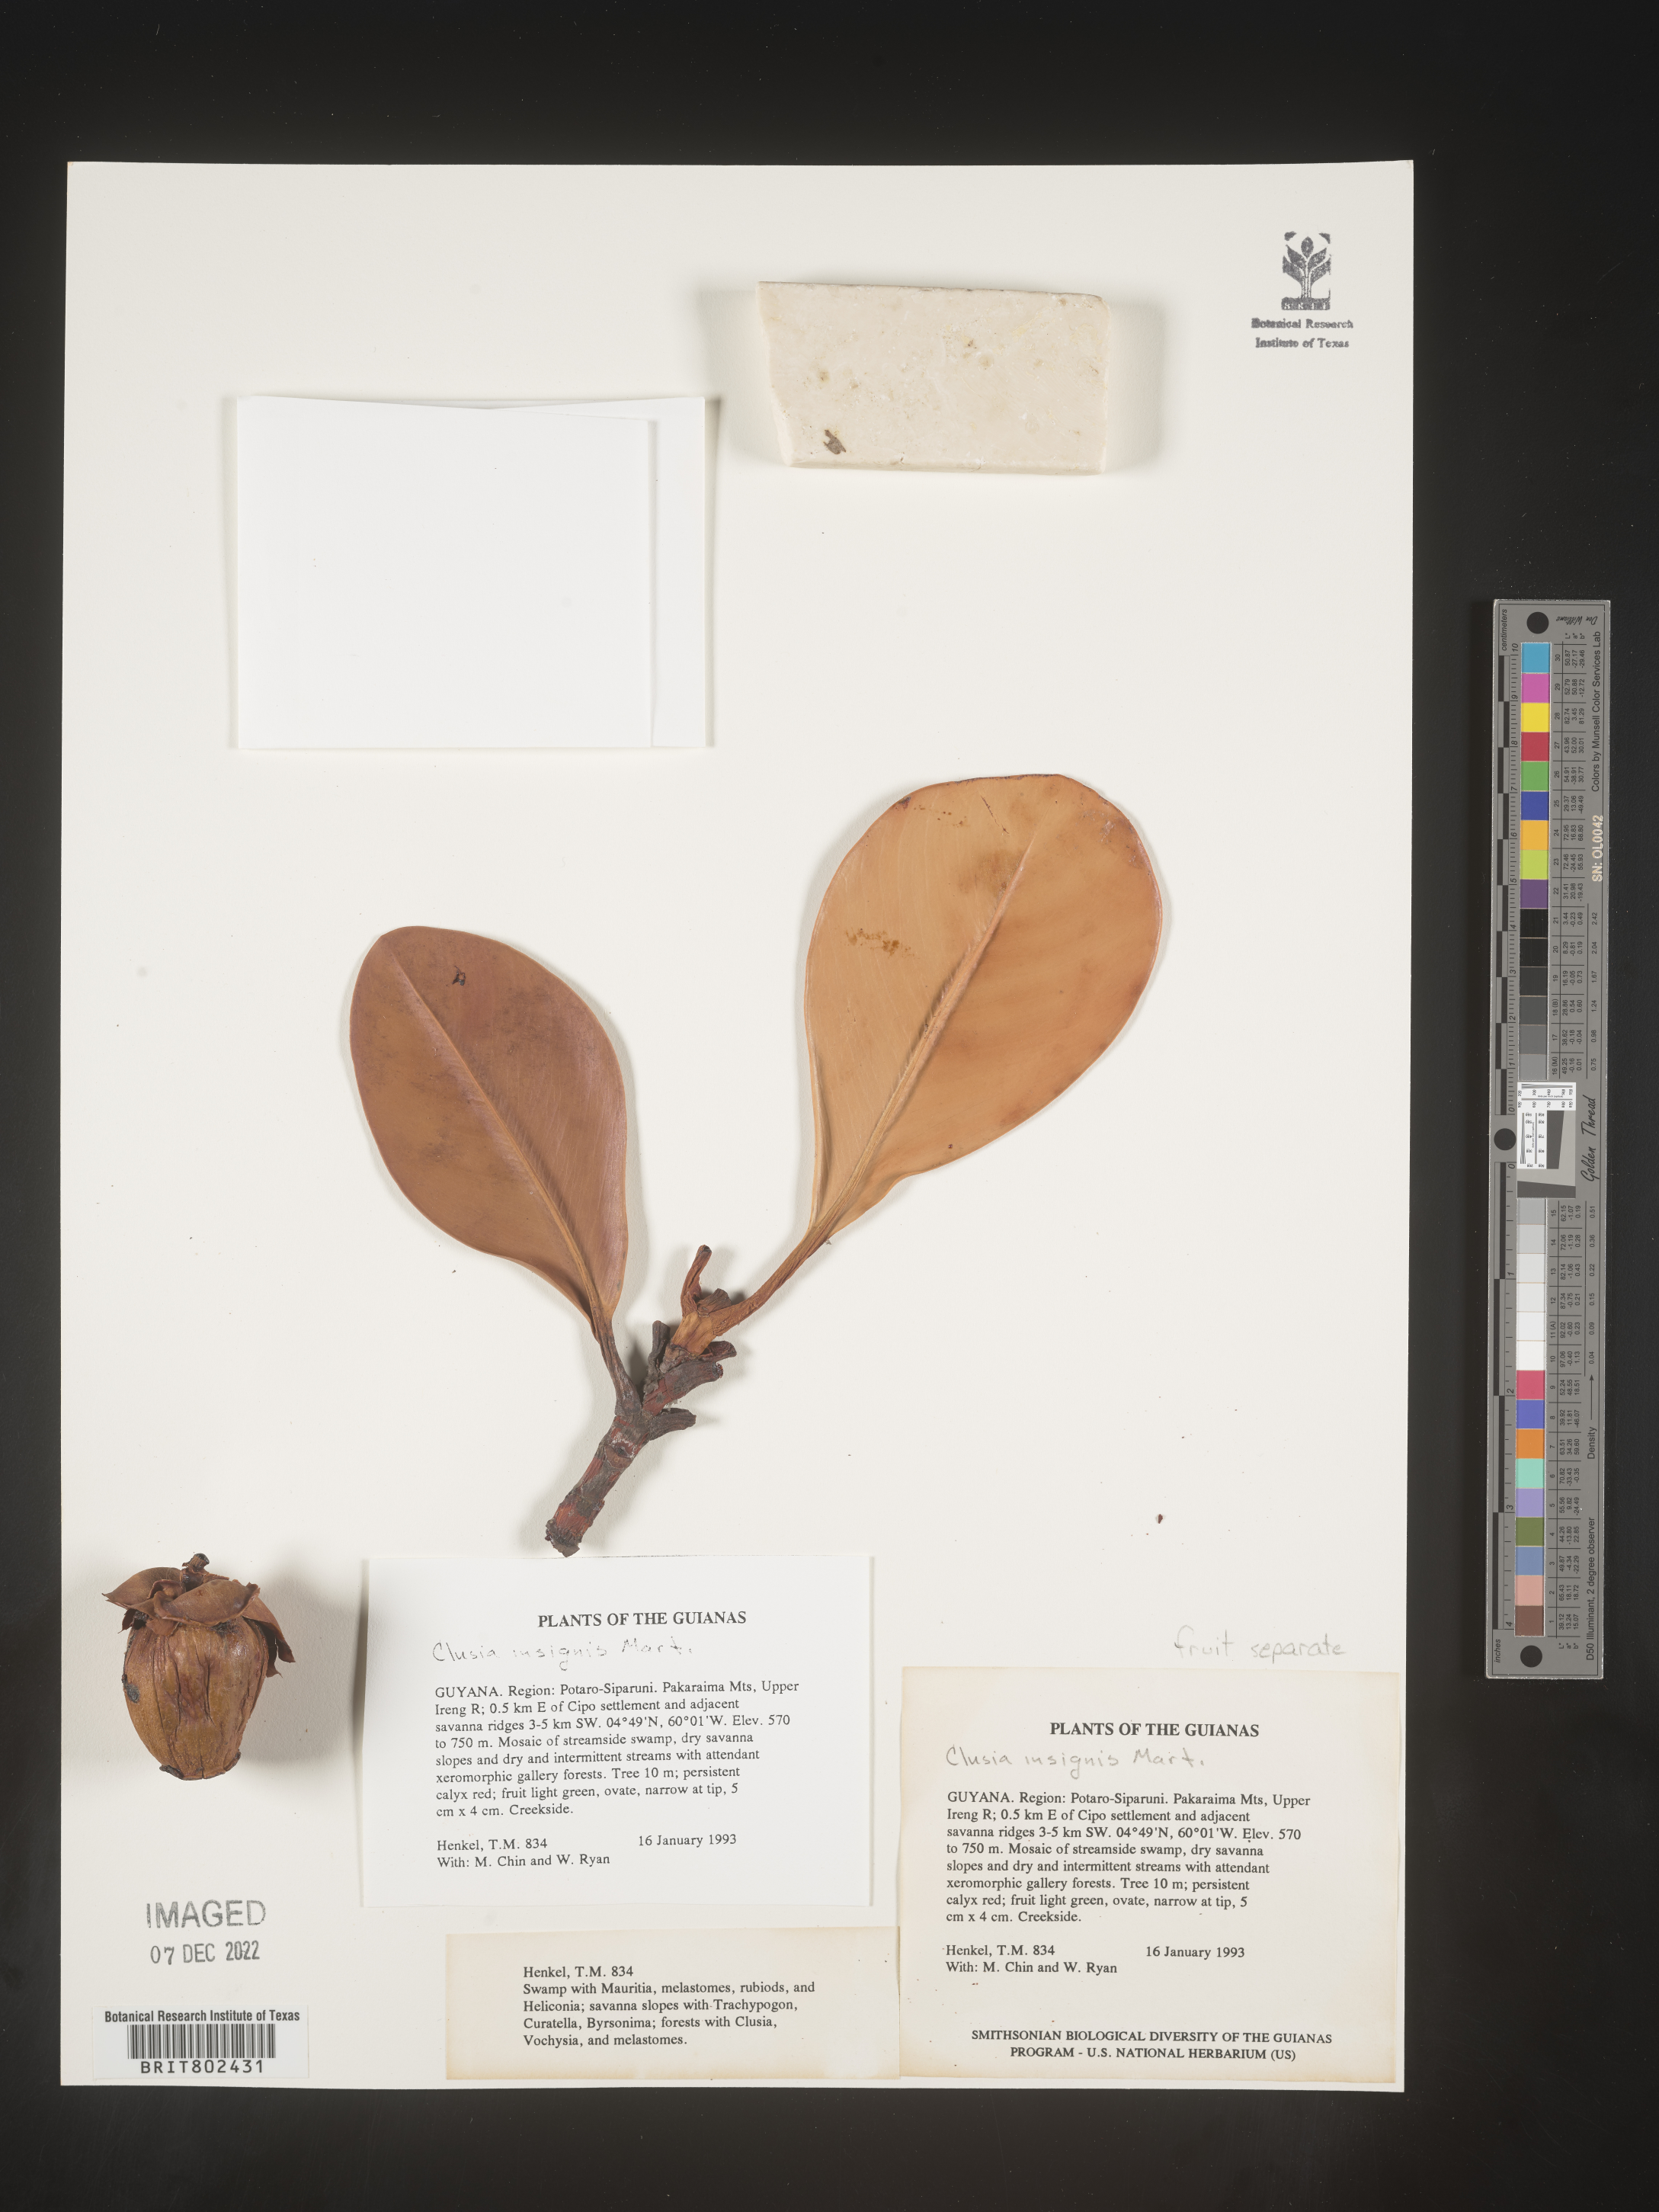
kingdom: Plantae
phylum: Tracheophyta
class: Magnoliopsida
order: Malpighiales
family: Clusiaceae
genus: Clusia
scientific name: Clusia insignis
